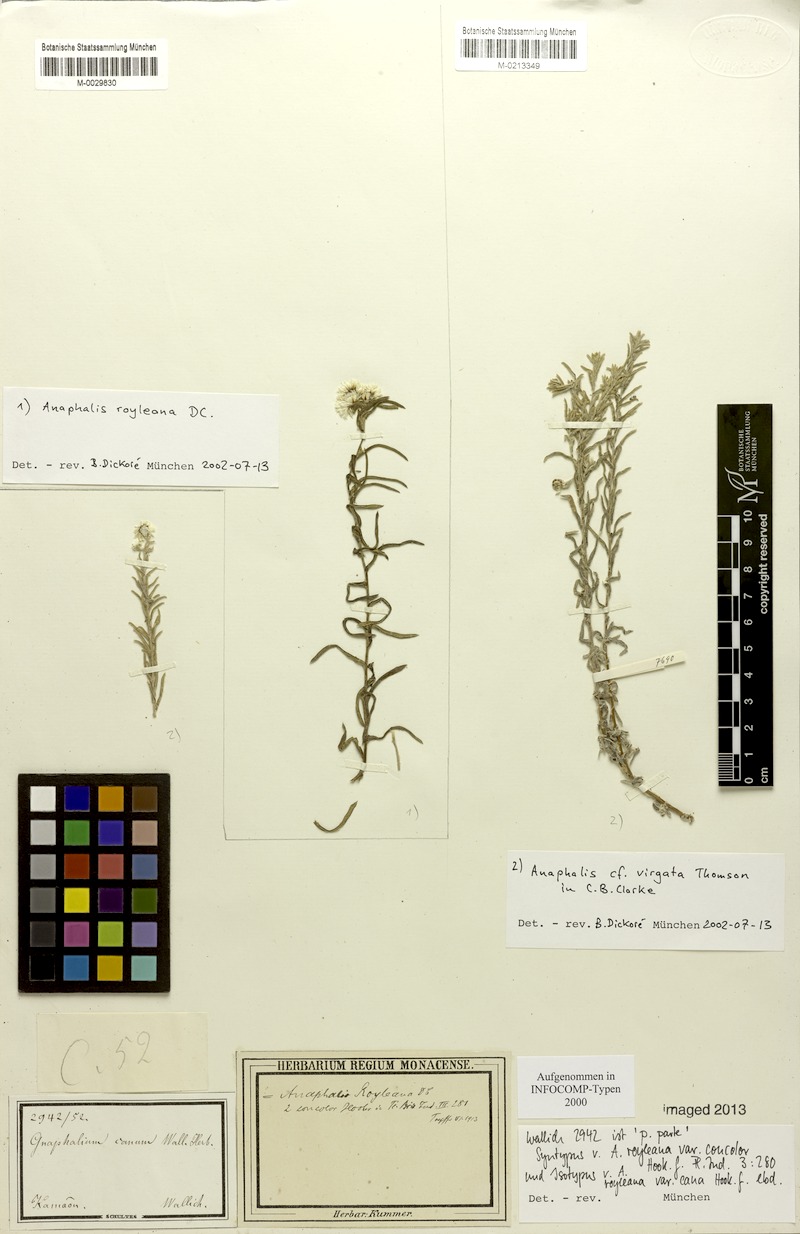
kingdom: Plantae
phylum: Tracheophyta
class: Magnoliopsida
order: Asterales
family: Asteraceae
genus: Anaphalis
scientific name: Anaphalis royleana
